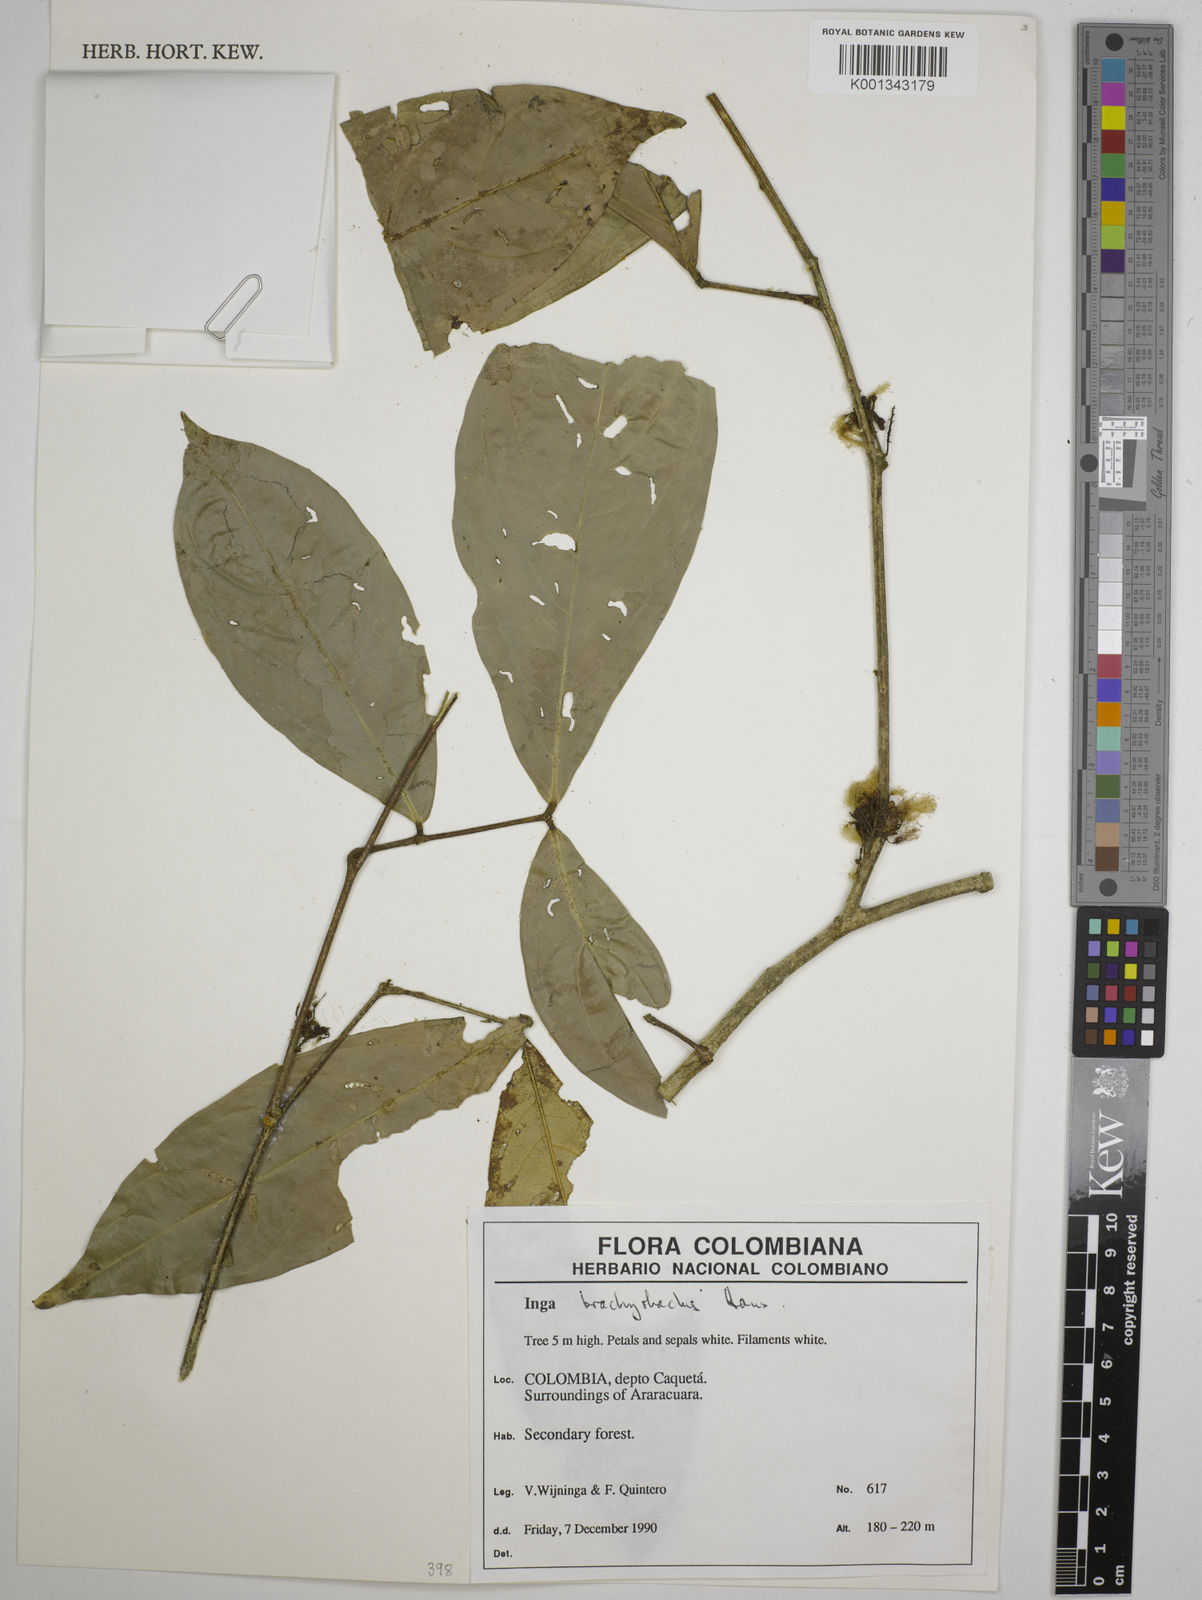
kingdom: Plantae
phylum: Tracheophyta
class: Magnoliopsida
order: Fabales
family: Fabaceae
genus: Inga
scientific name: Inga brachyrhachis
